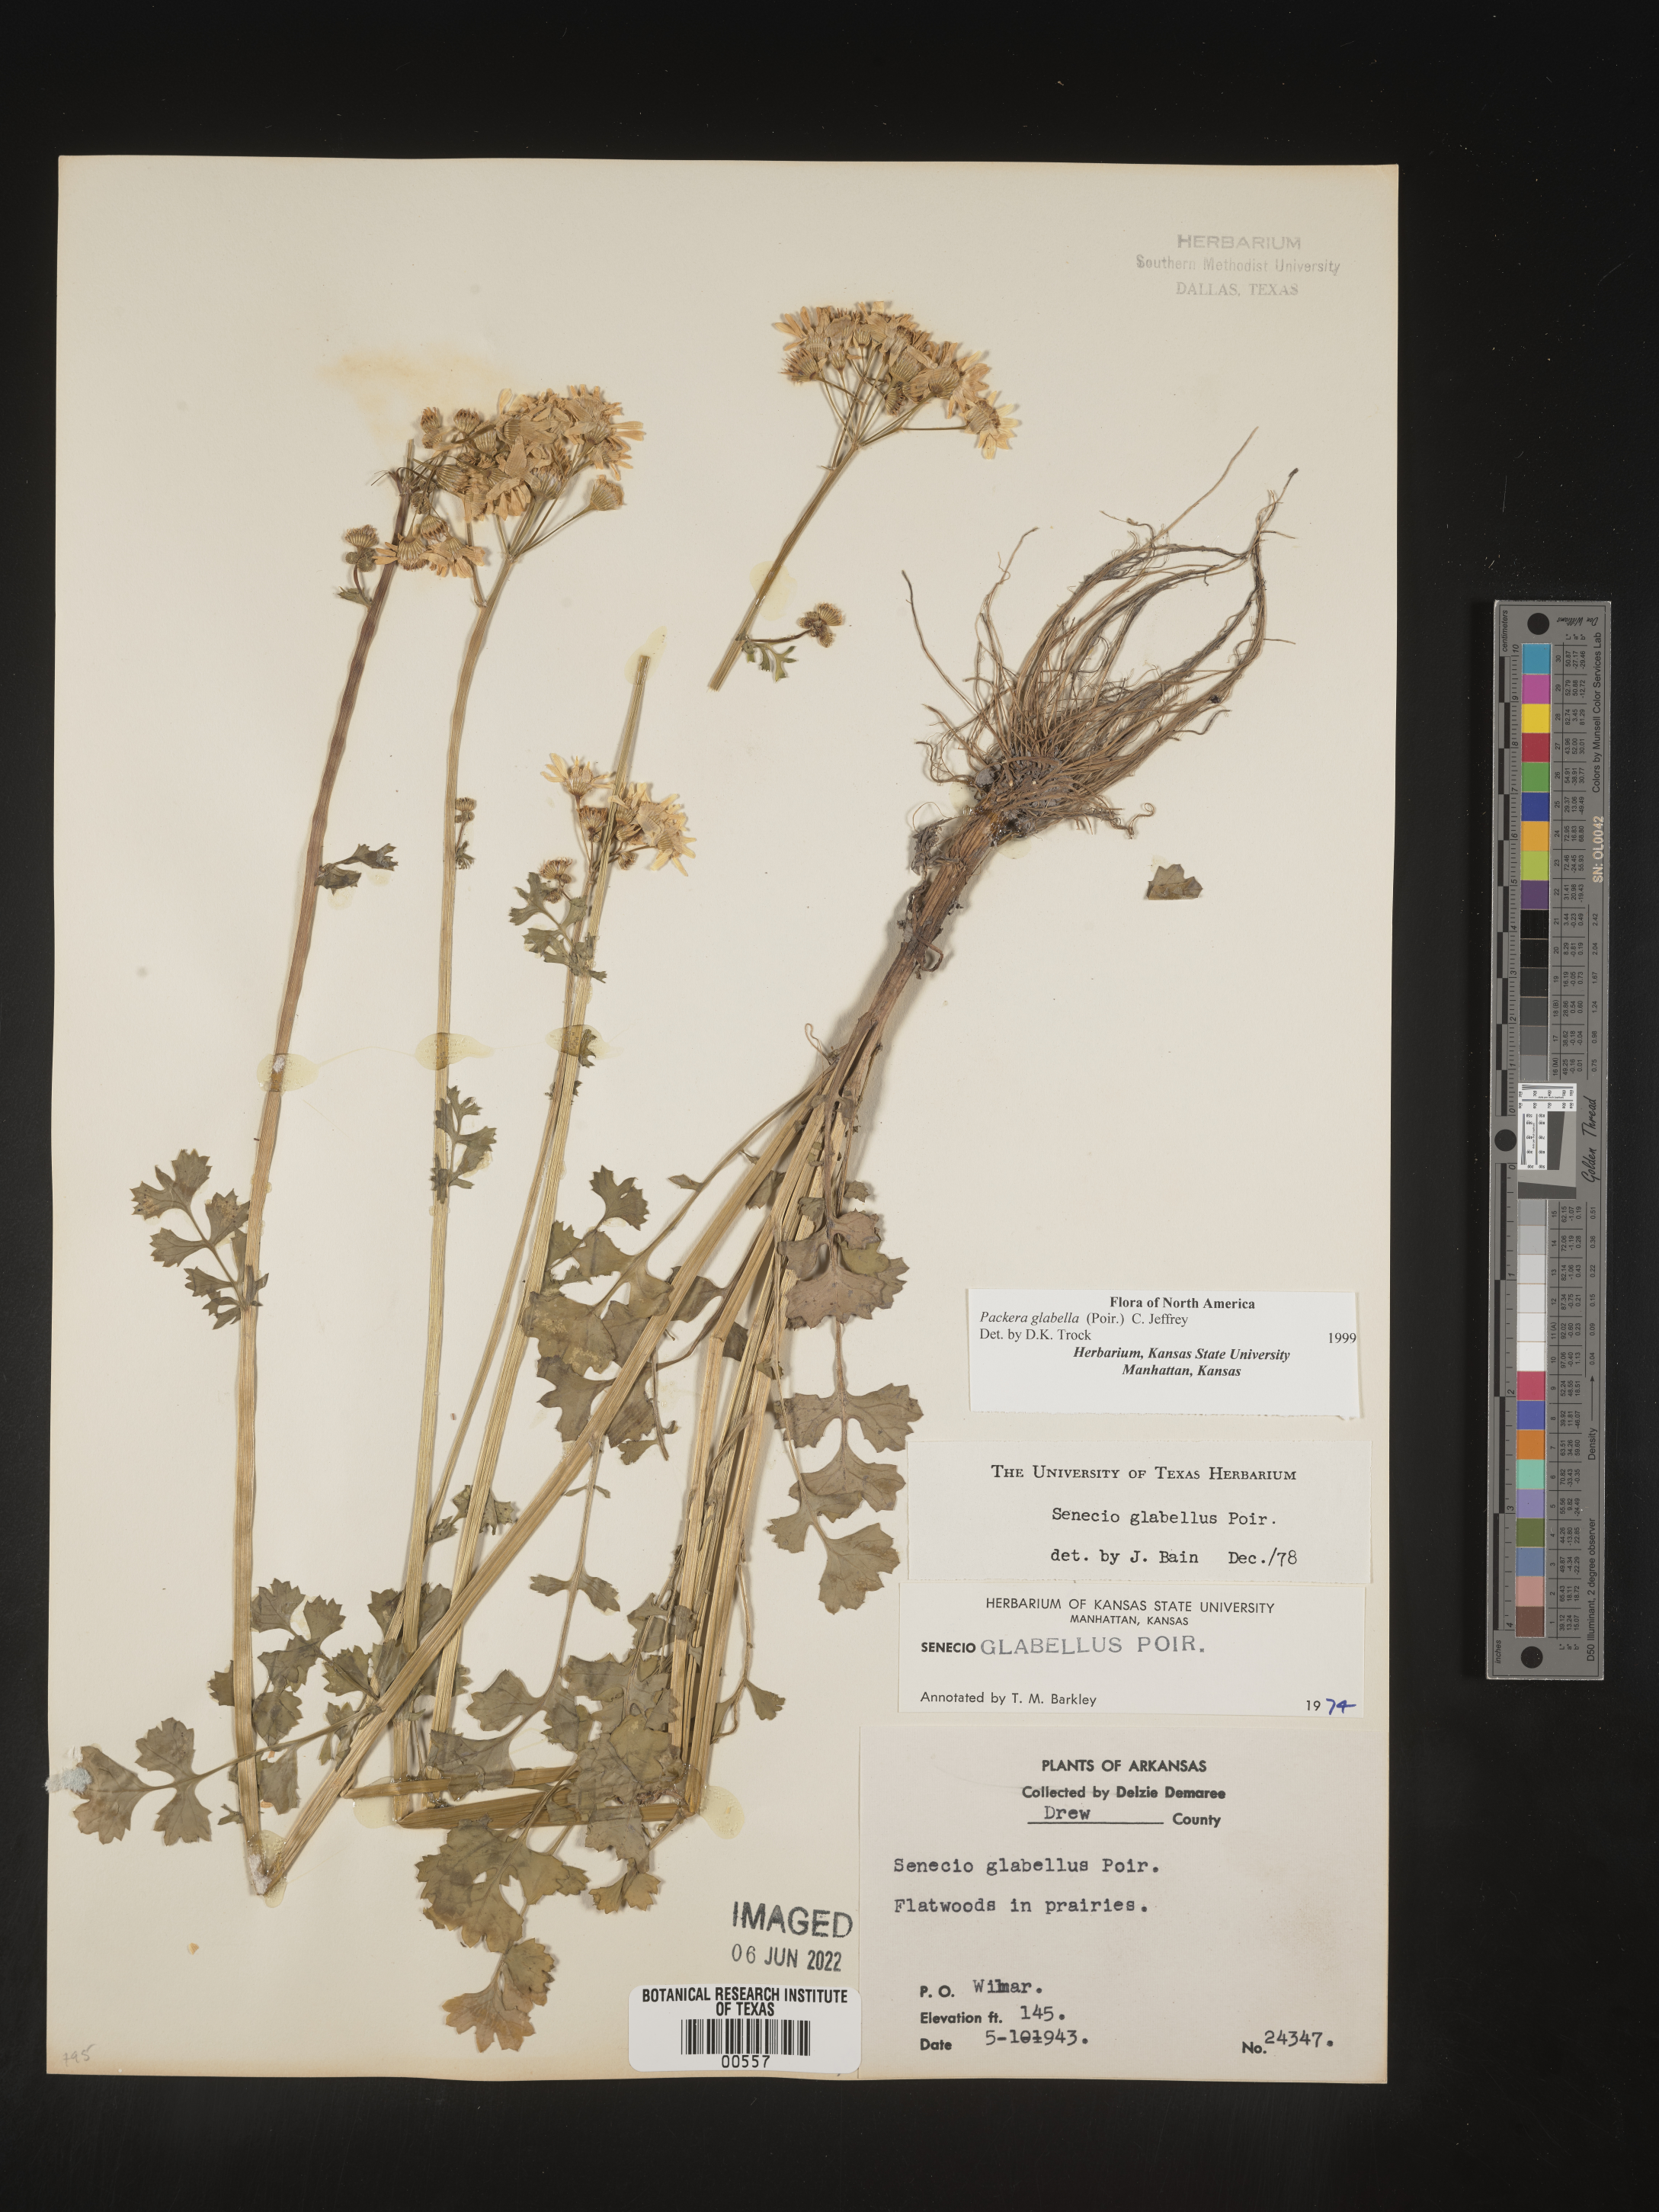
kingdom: Plantae
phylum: Tracheophyta
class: Magnoliopsida
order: Asterales
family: Asteraceae
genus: Packera
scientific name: Packera glabella
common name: Butterweed
